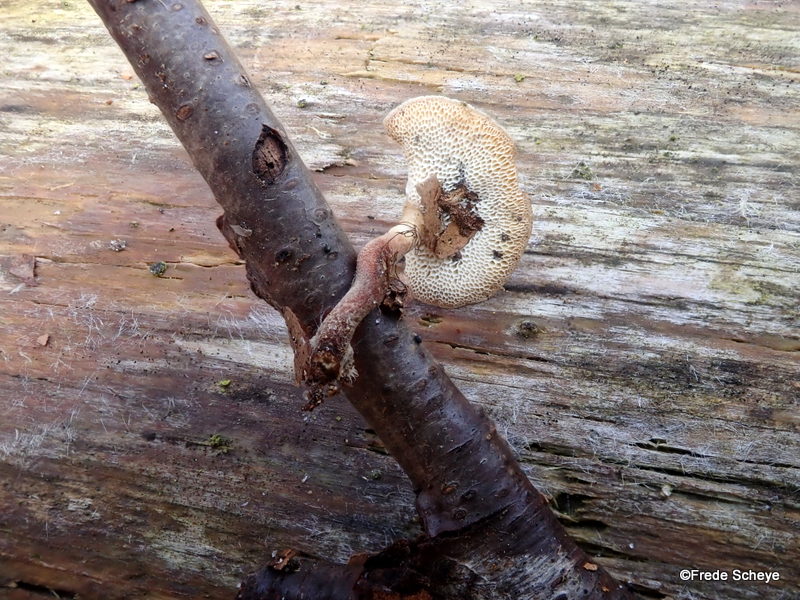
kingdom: Fungi
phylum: Basidiomycota
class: Agaricomycetes
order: Polyporales
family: Polyporaceae
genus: Lentinus
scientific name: Lentinus brumalis
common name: vinter-stilkporesvamp
